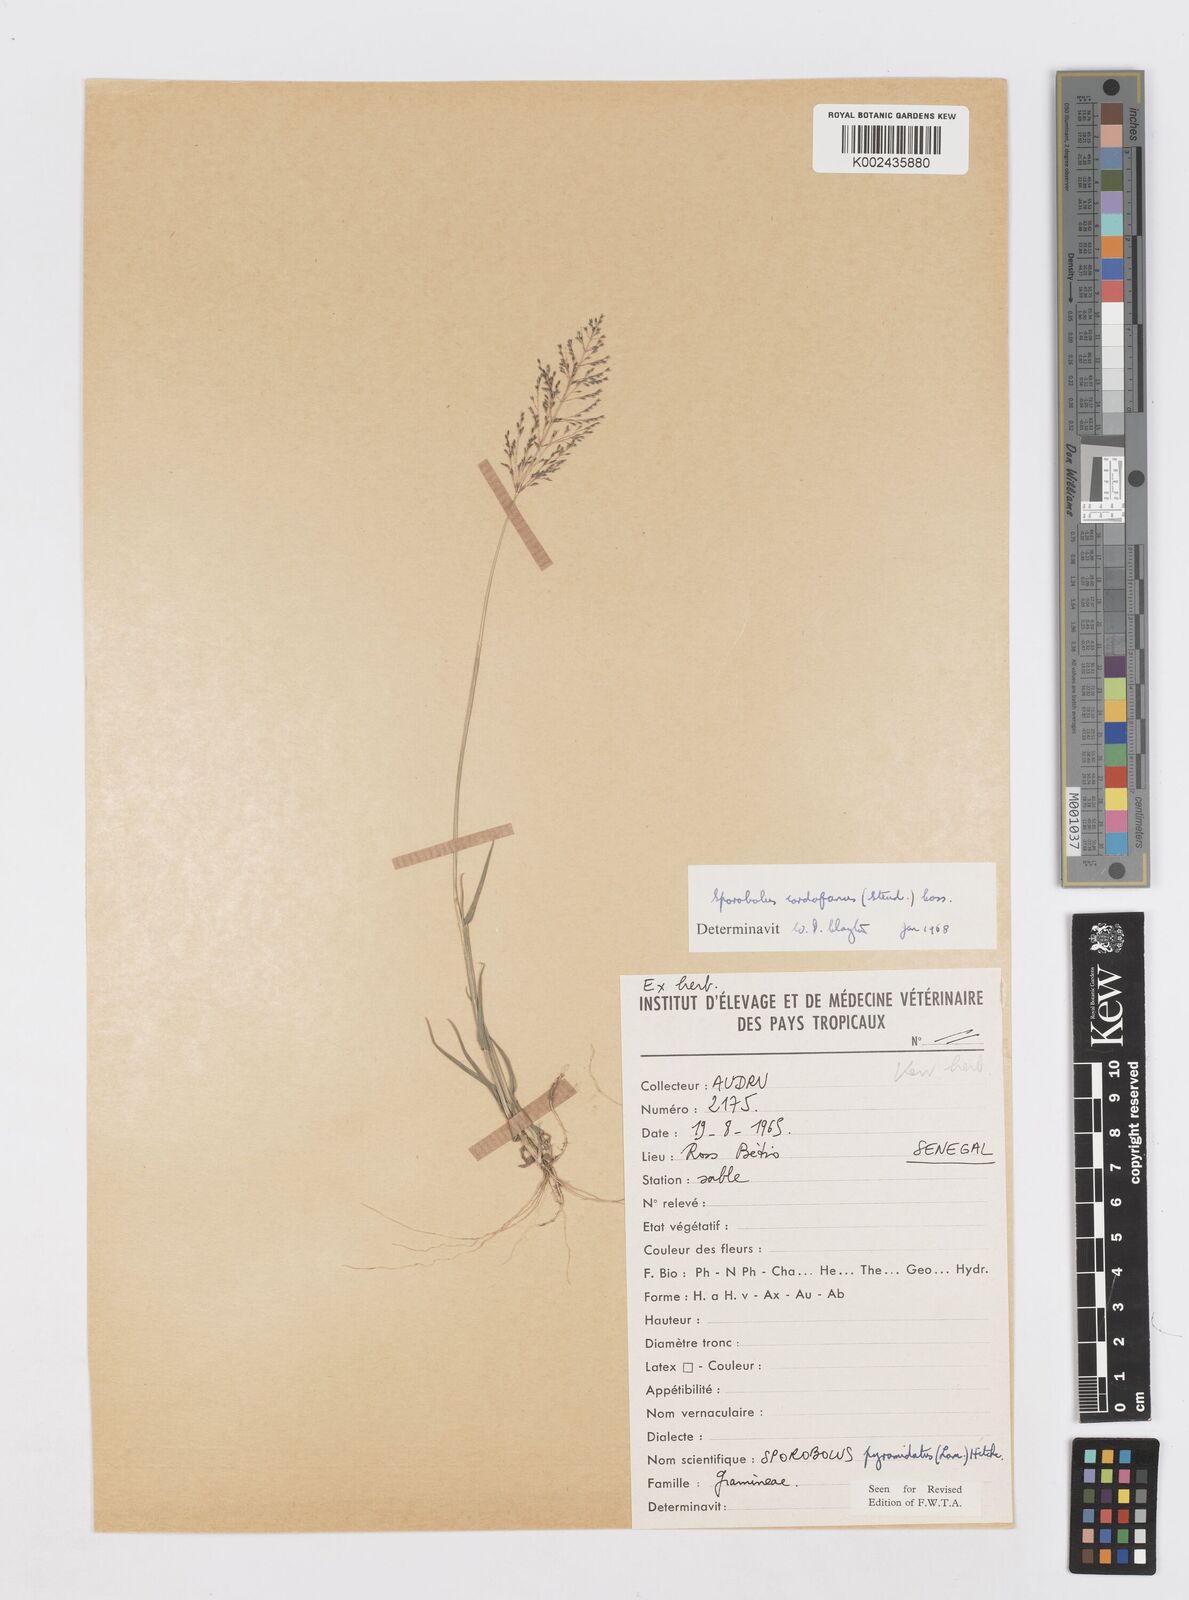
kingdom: Plantae
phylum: Tracheophyta
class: Liliopsida
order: Poales
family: Poaceae
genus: Sporobolus
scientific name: Sporobolus cordofanus
